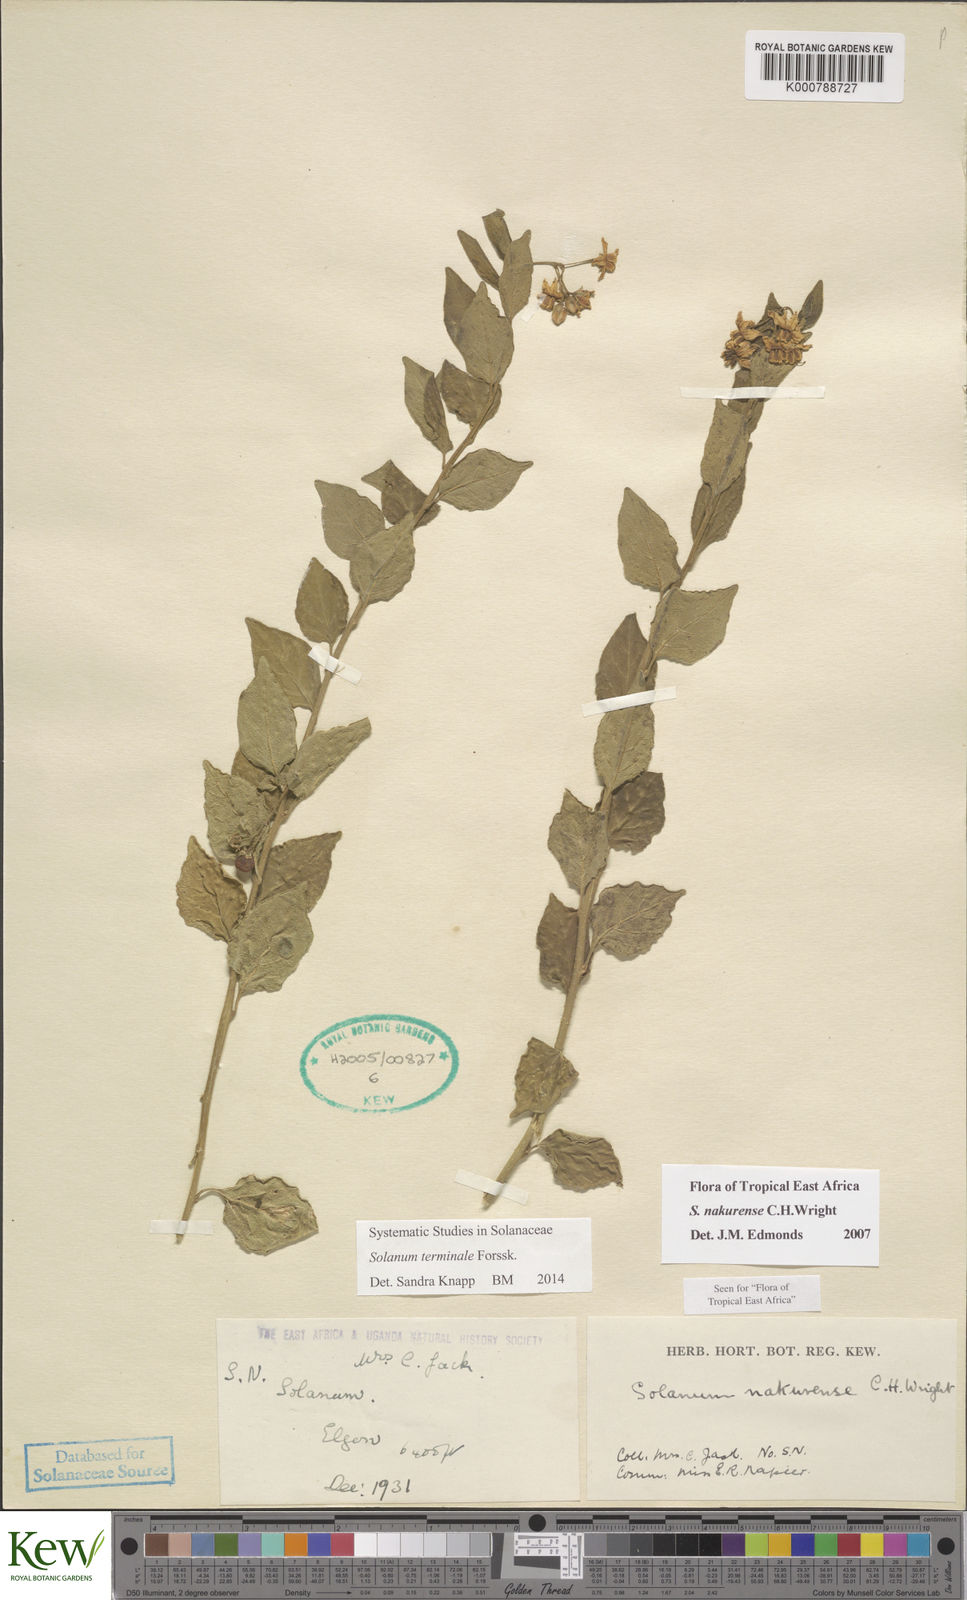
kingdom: Plantae
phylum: Tracheophyta
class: Magnoliopsida
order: Solanales
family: Solanaceae
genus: Solanum
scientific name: Solanum terminale
